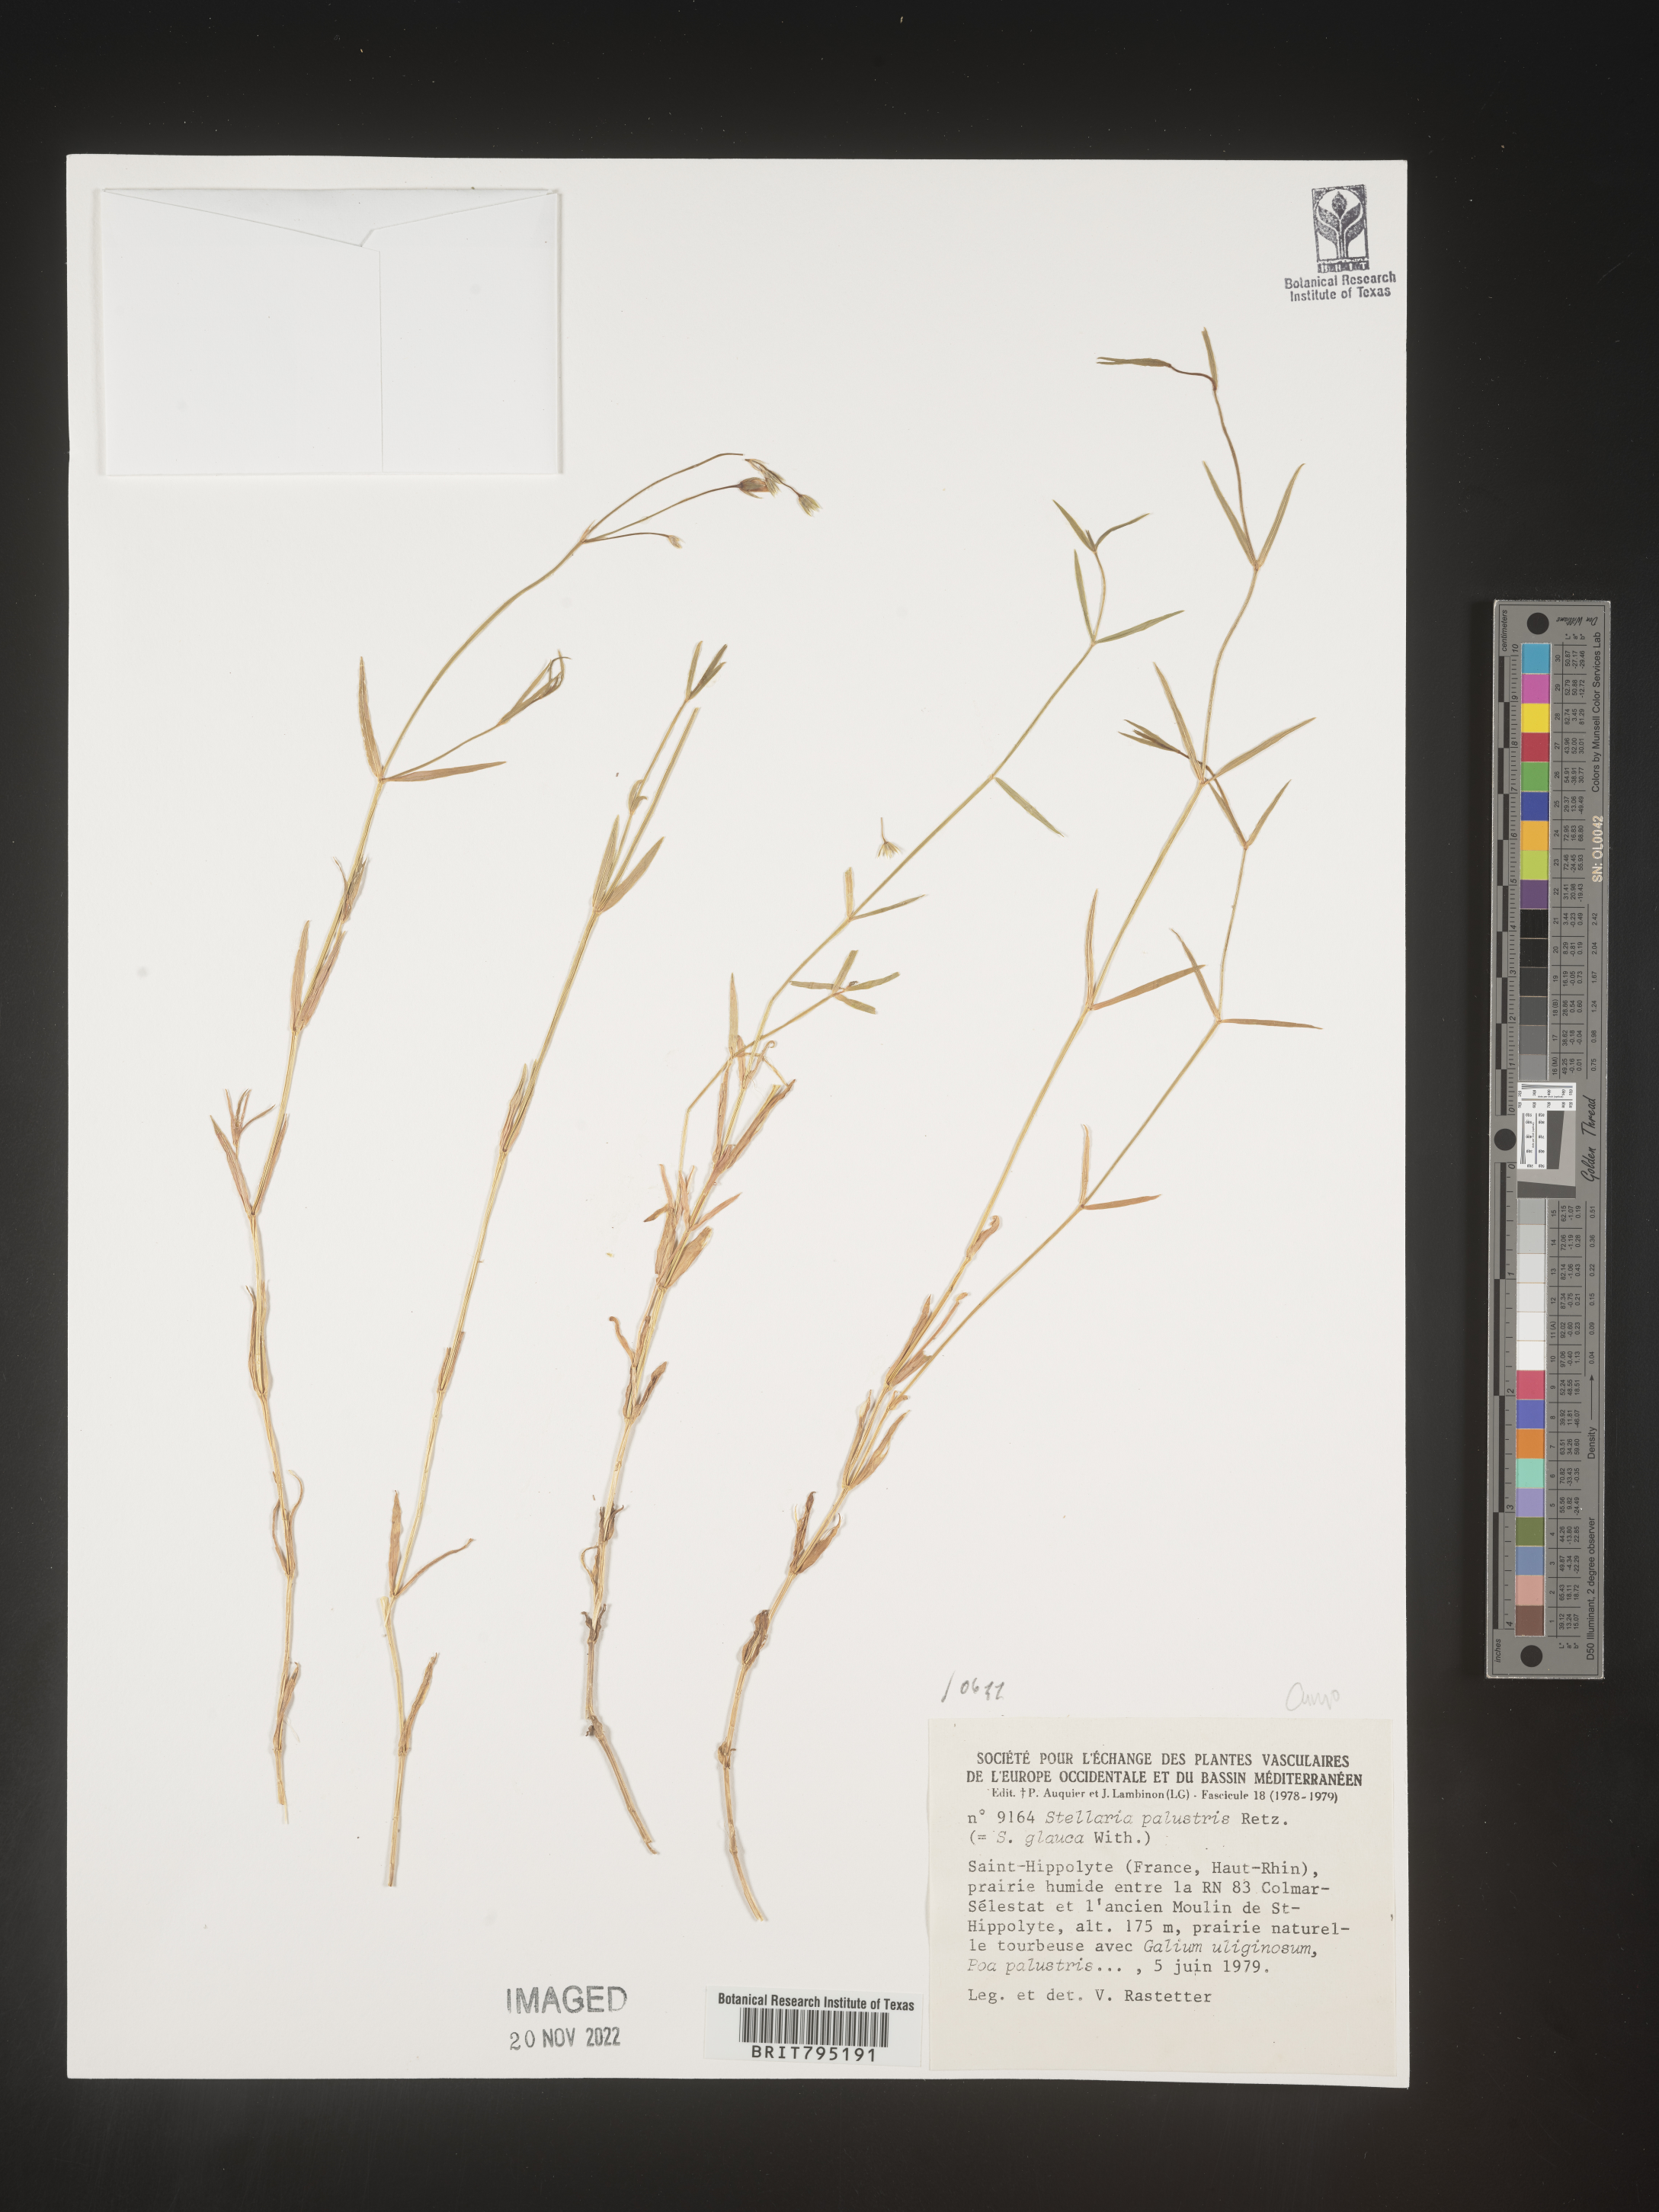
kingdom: Plantae
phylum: Tracheophyta
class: Magnoliopsida
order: Caryophyllales
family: Caryophyllaceae
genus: Stellaria
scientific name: Stellaria
